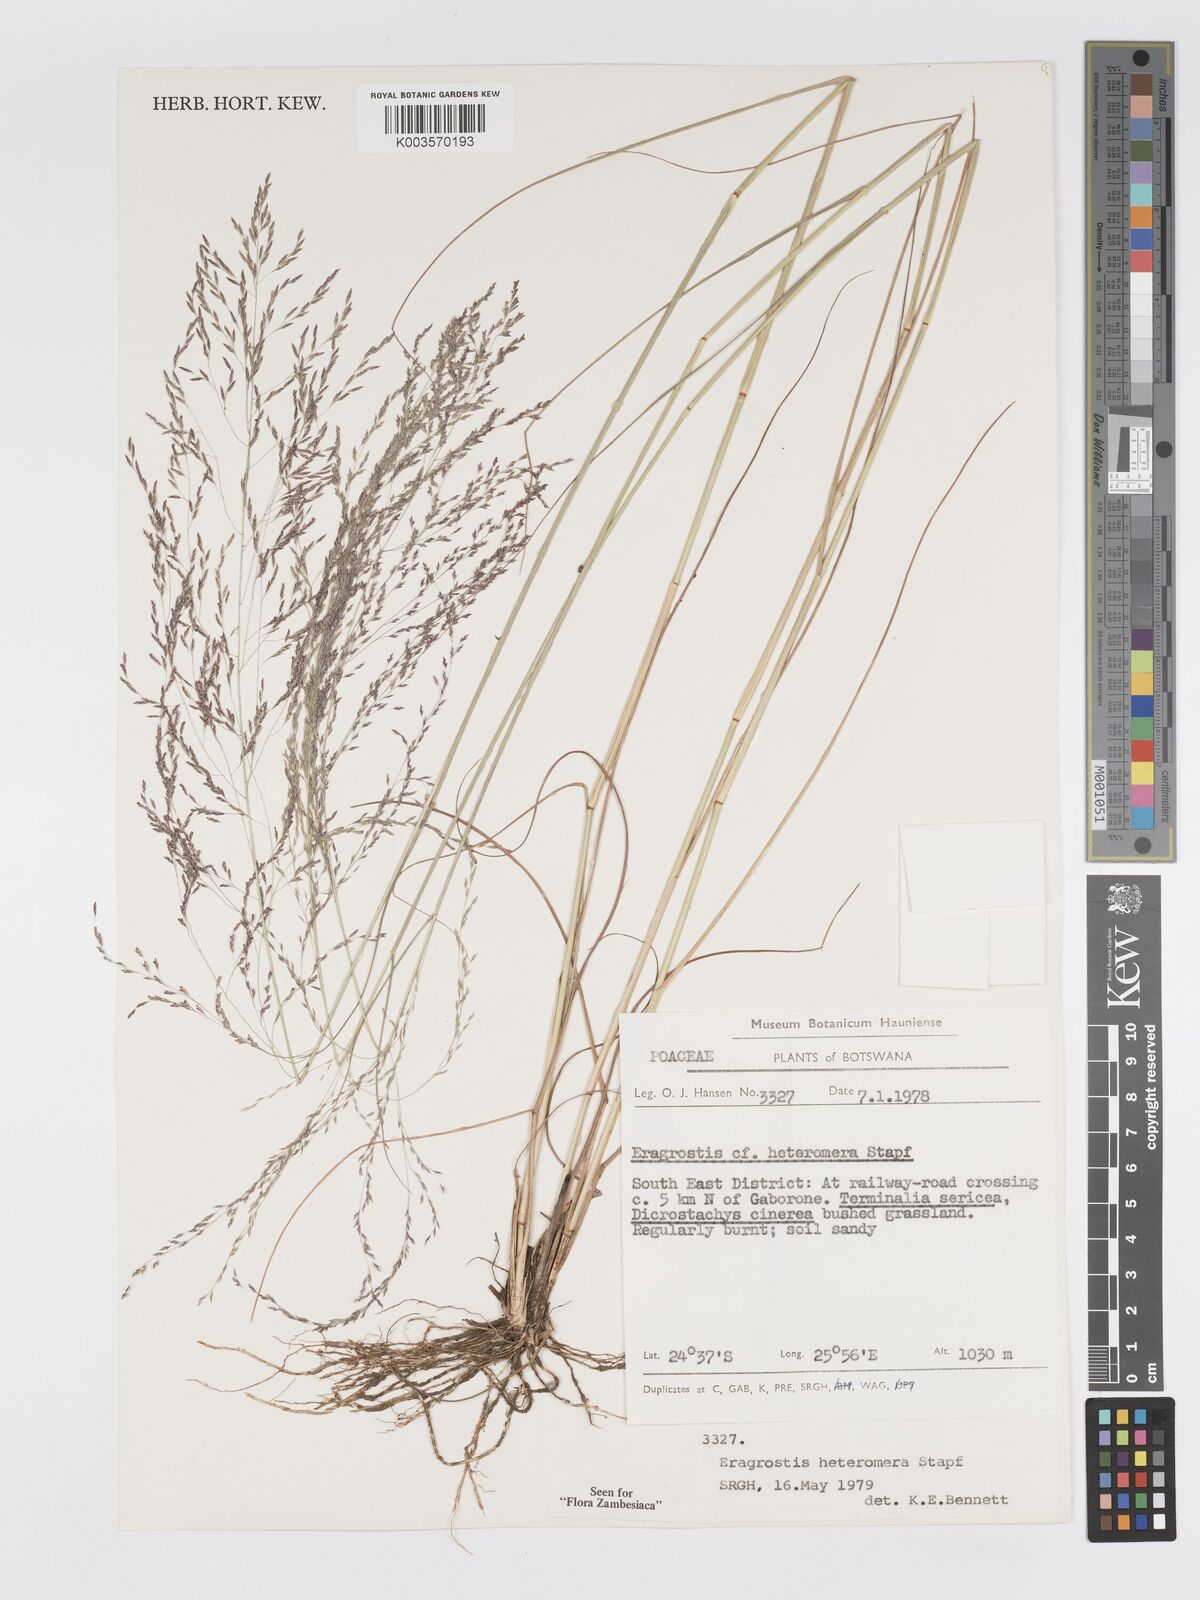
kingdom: Plantae
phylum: Tracheophyta
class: Liliopsida
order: Poales
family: Poaceae
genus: Eragrostis
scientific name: Eragrostis heteromera
